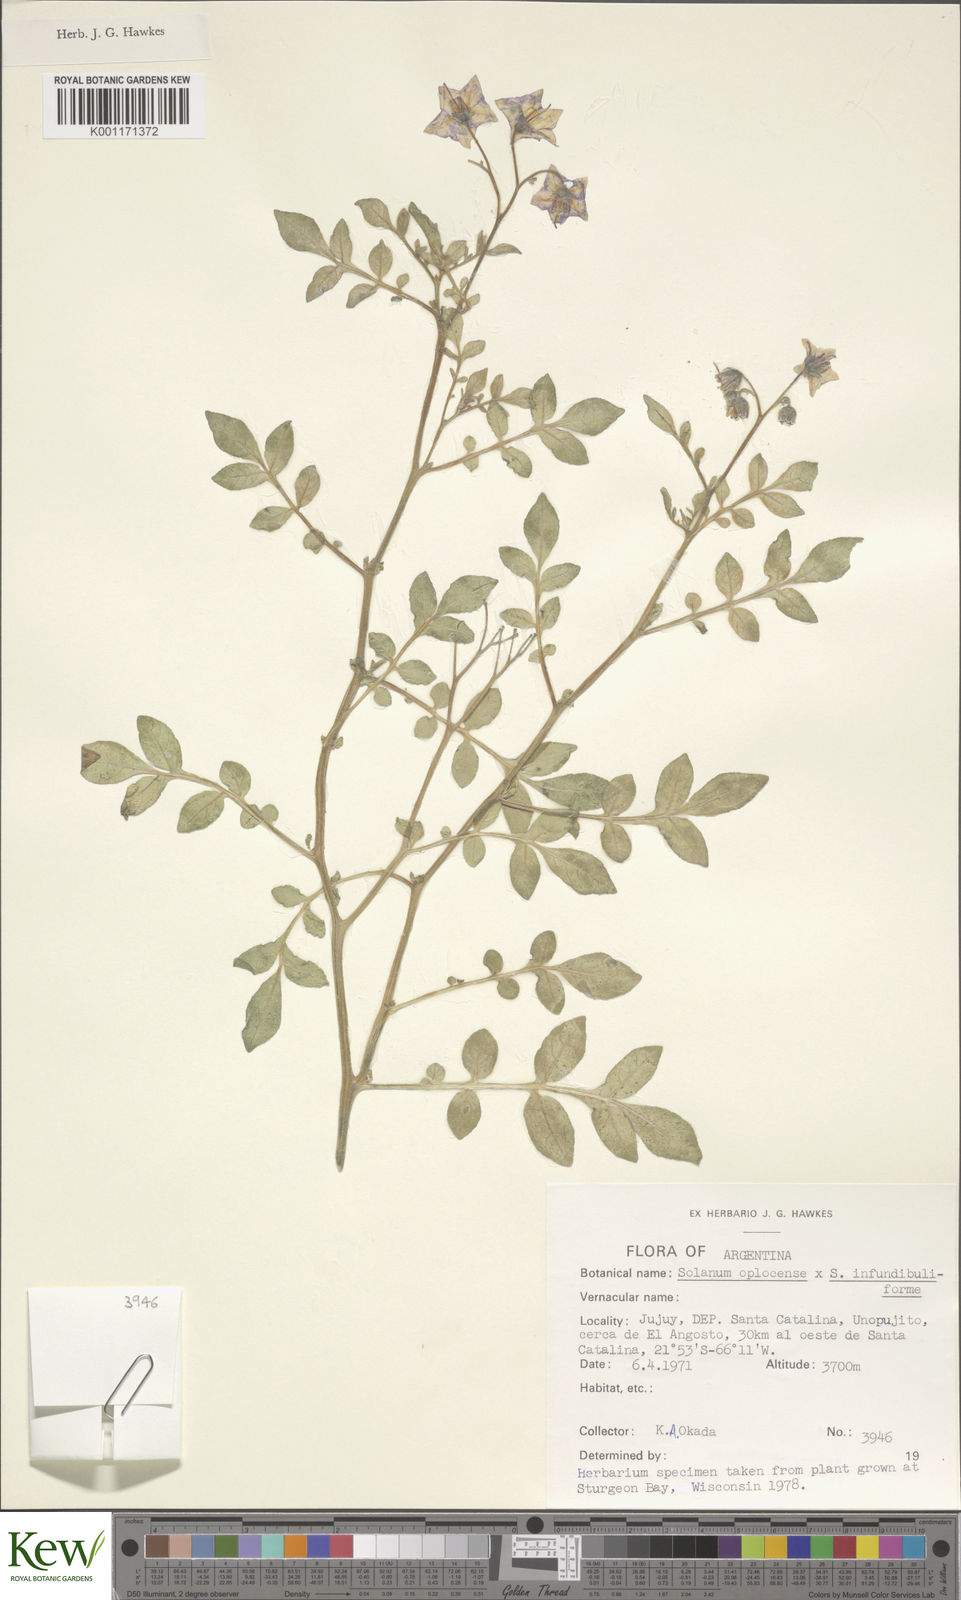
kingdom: Plantae
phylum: Tracheophyta
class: Magnoliopsida
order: Solanales
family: Solanaceae
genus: Solanum
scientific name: Solanum brevicaule
